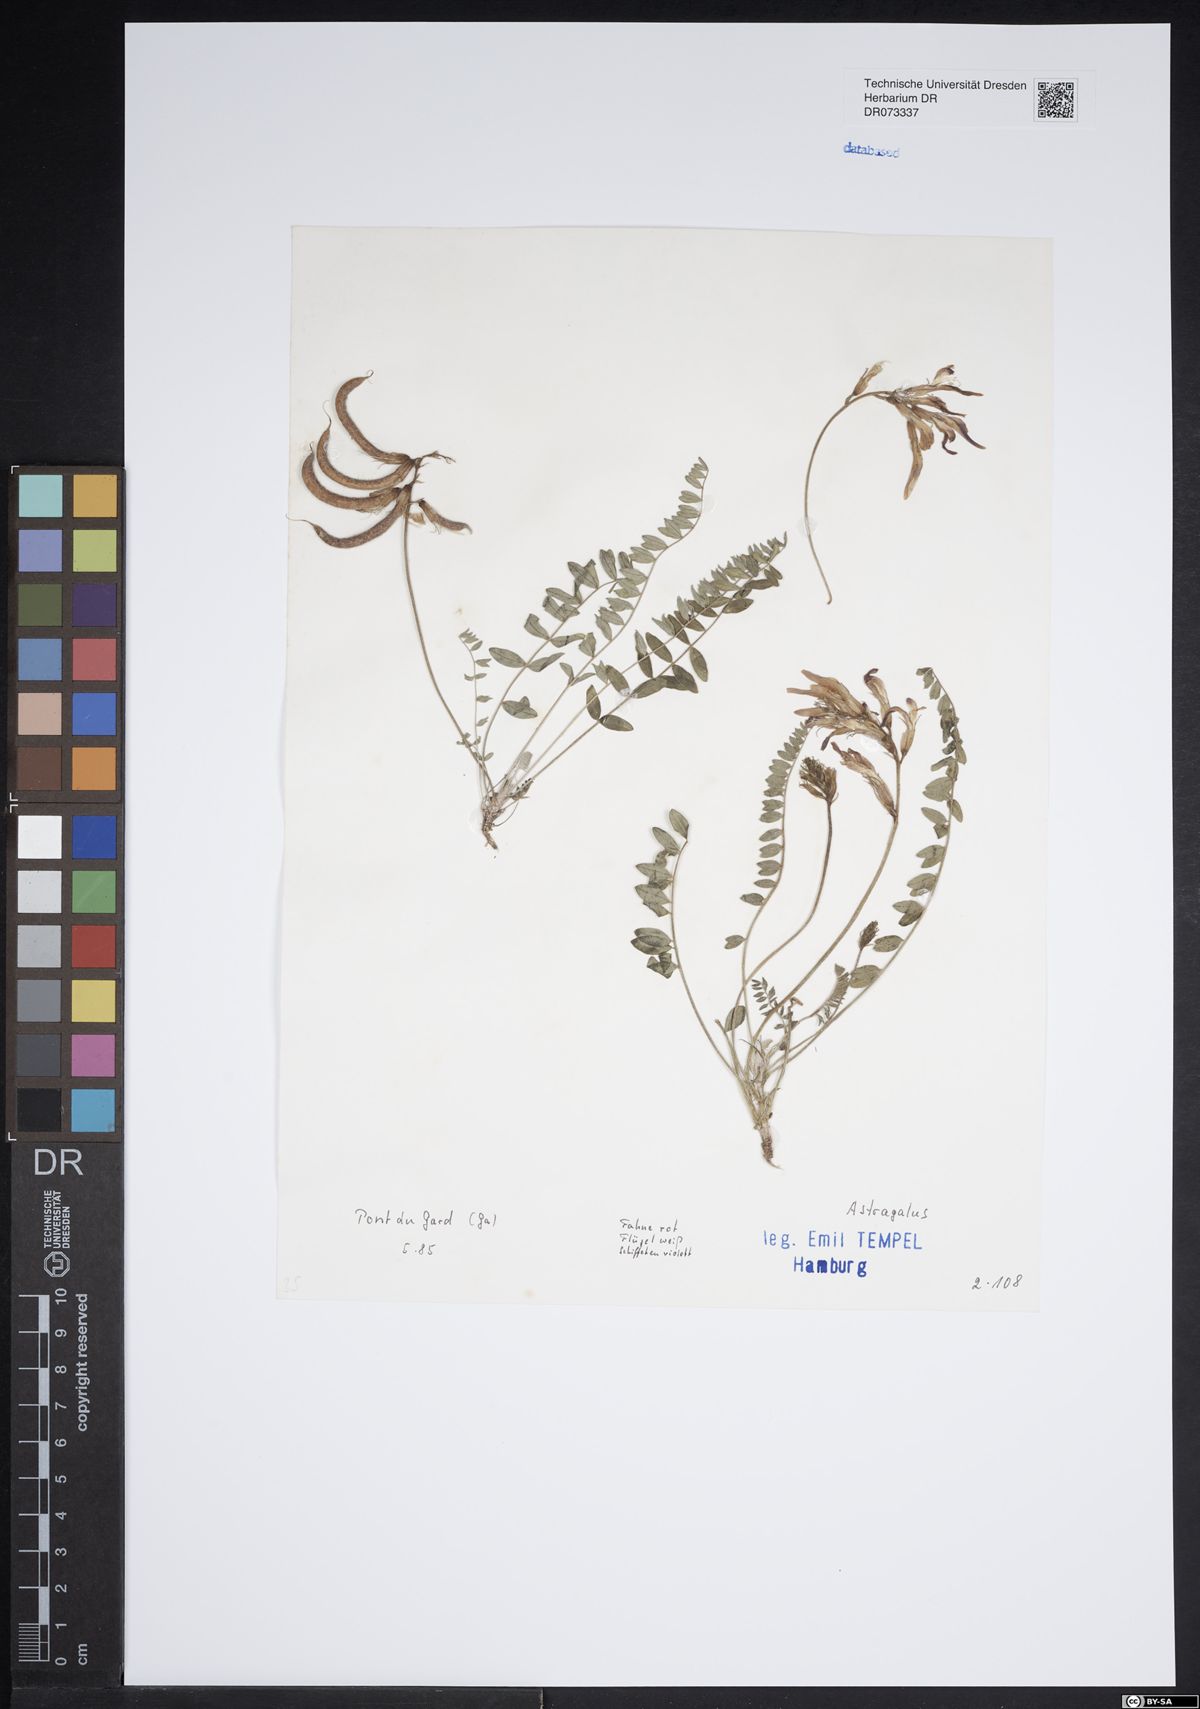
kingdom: Plantae
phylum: Tracheophyta
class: Magnoliopsida
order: Fabales
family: Fabaceae
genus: Astragalus
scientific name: Astragalus
